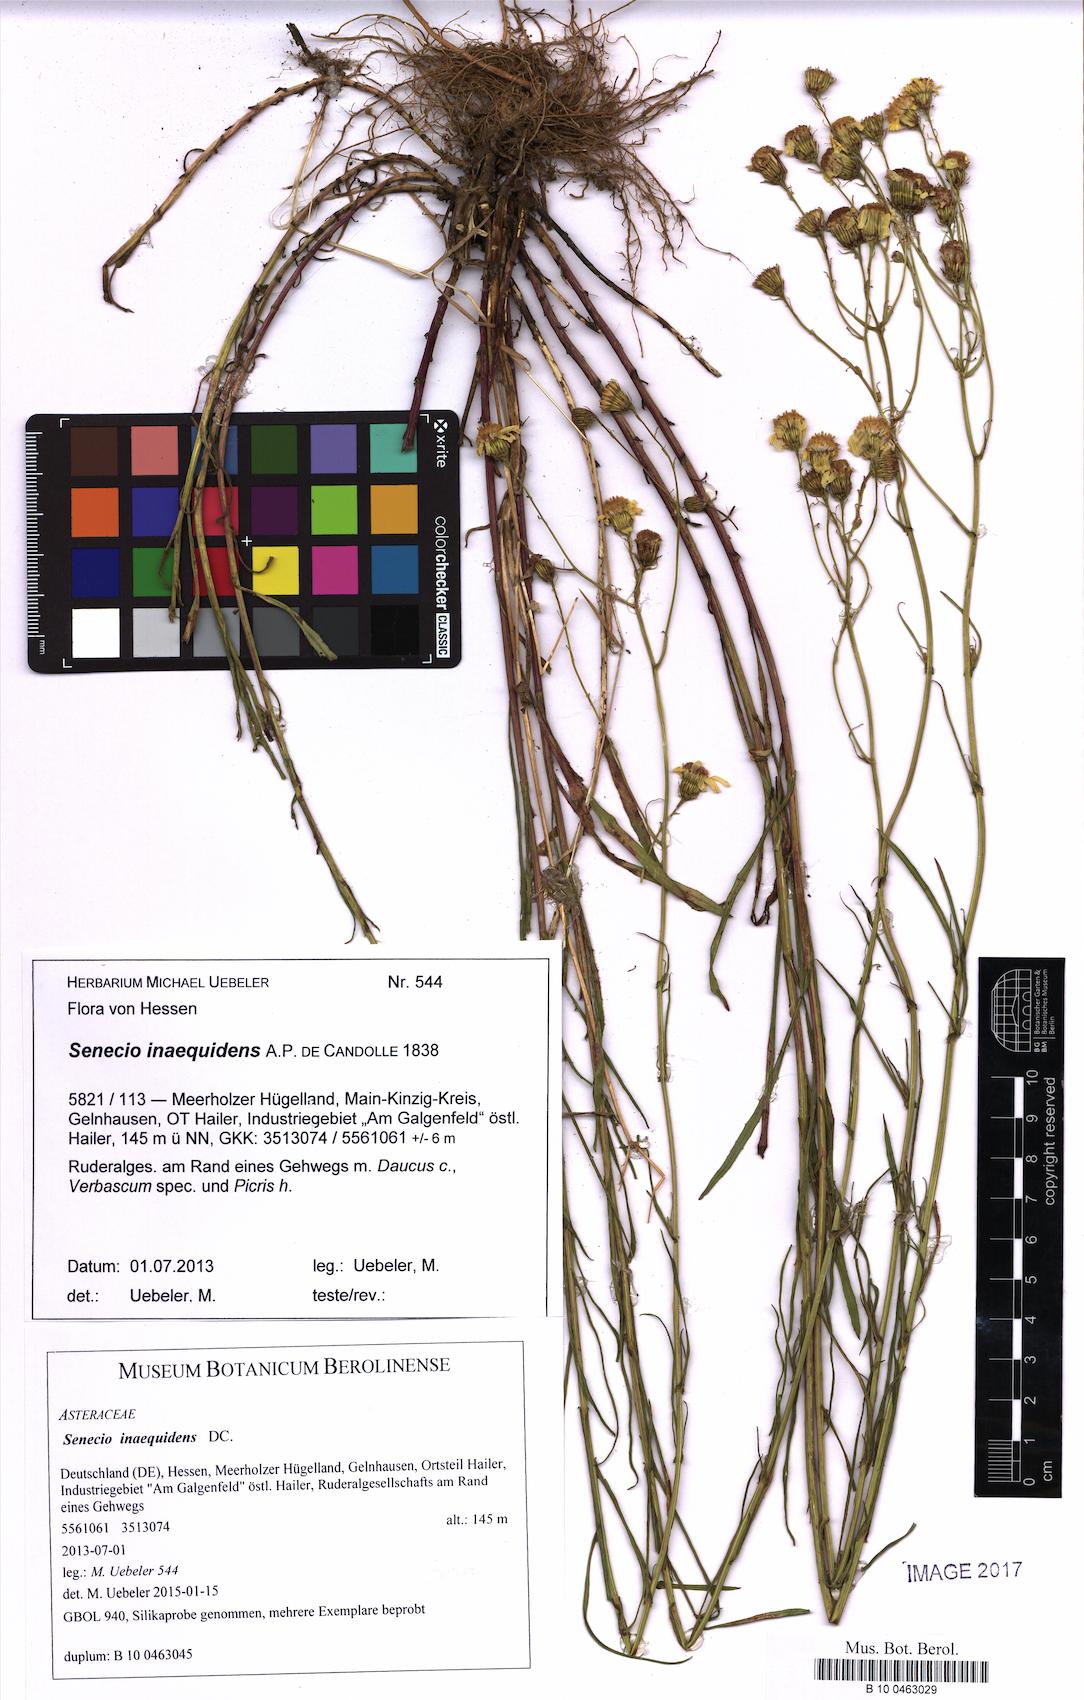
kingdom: Plantae
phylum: Tracheophyta
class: Magnoliopsida
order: Asterales
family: Asteraceae
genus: Senecio
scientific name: Senecio inaequidens
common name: Narrow-leaved ragwort
